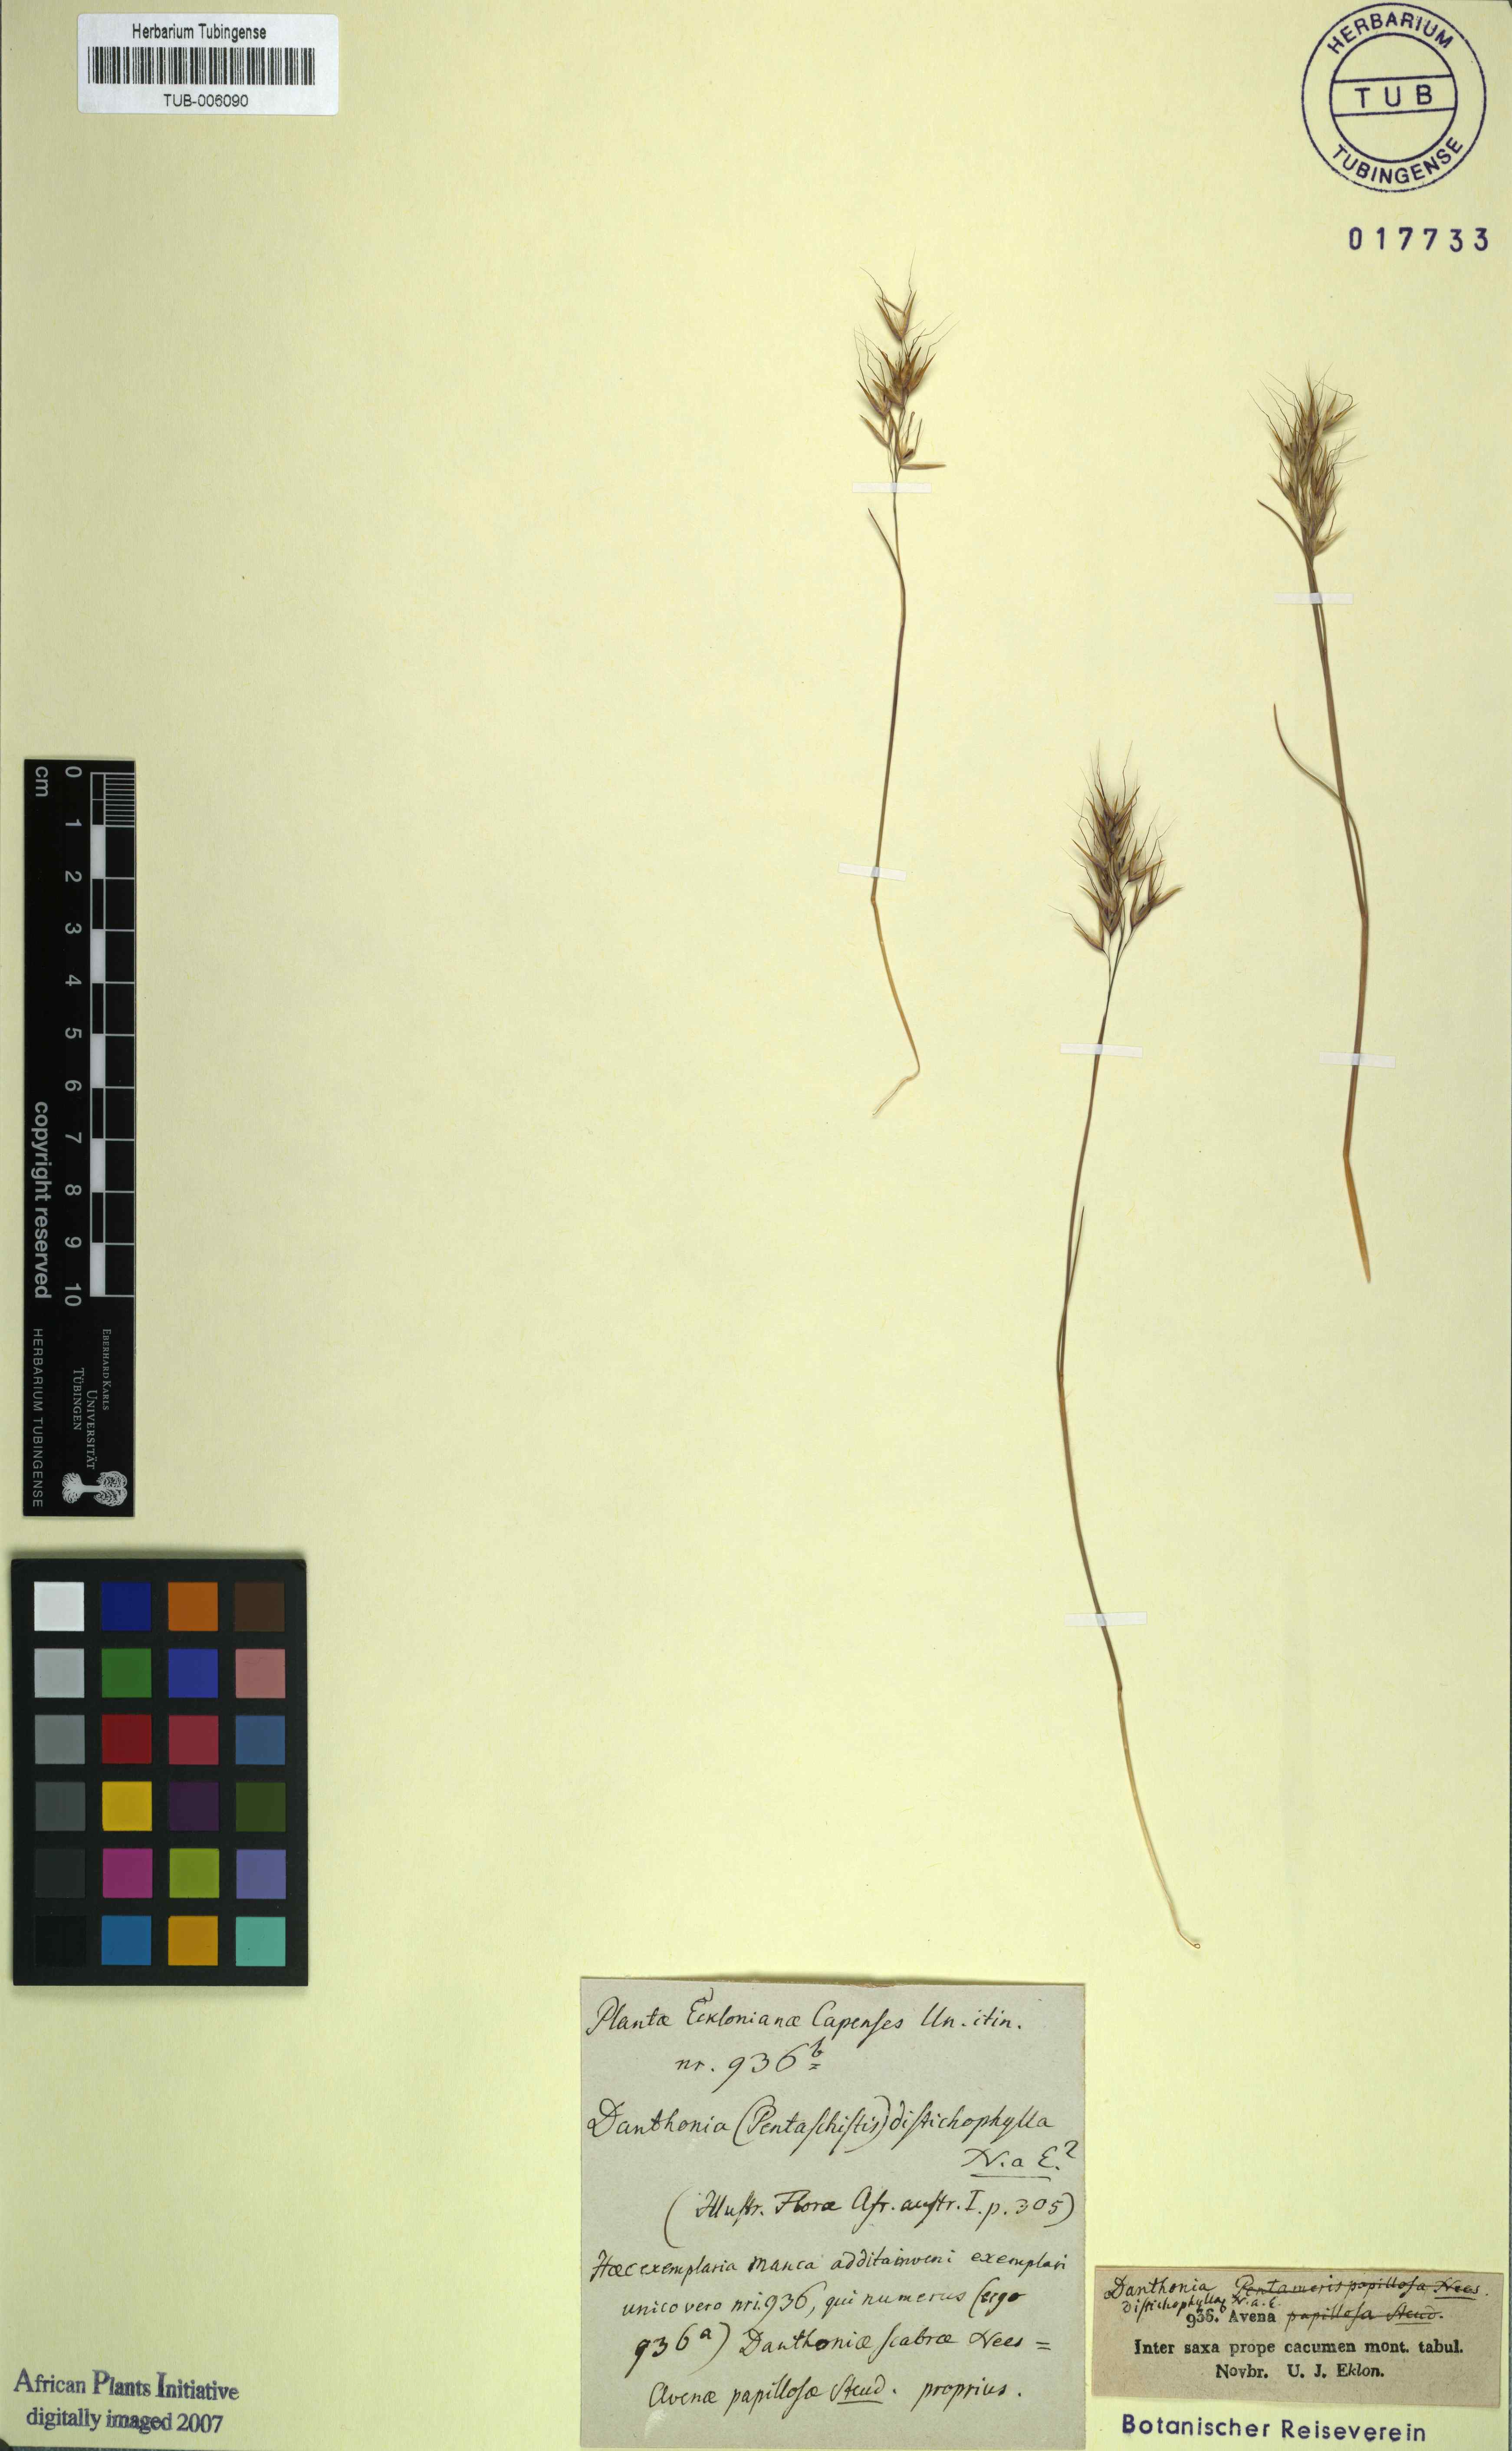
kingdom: Plantae
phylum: Tracheophyta
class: Liliopsida
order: Poales
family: Poaceae
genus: Pentameris
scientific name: Pentameris dregeana
